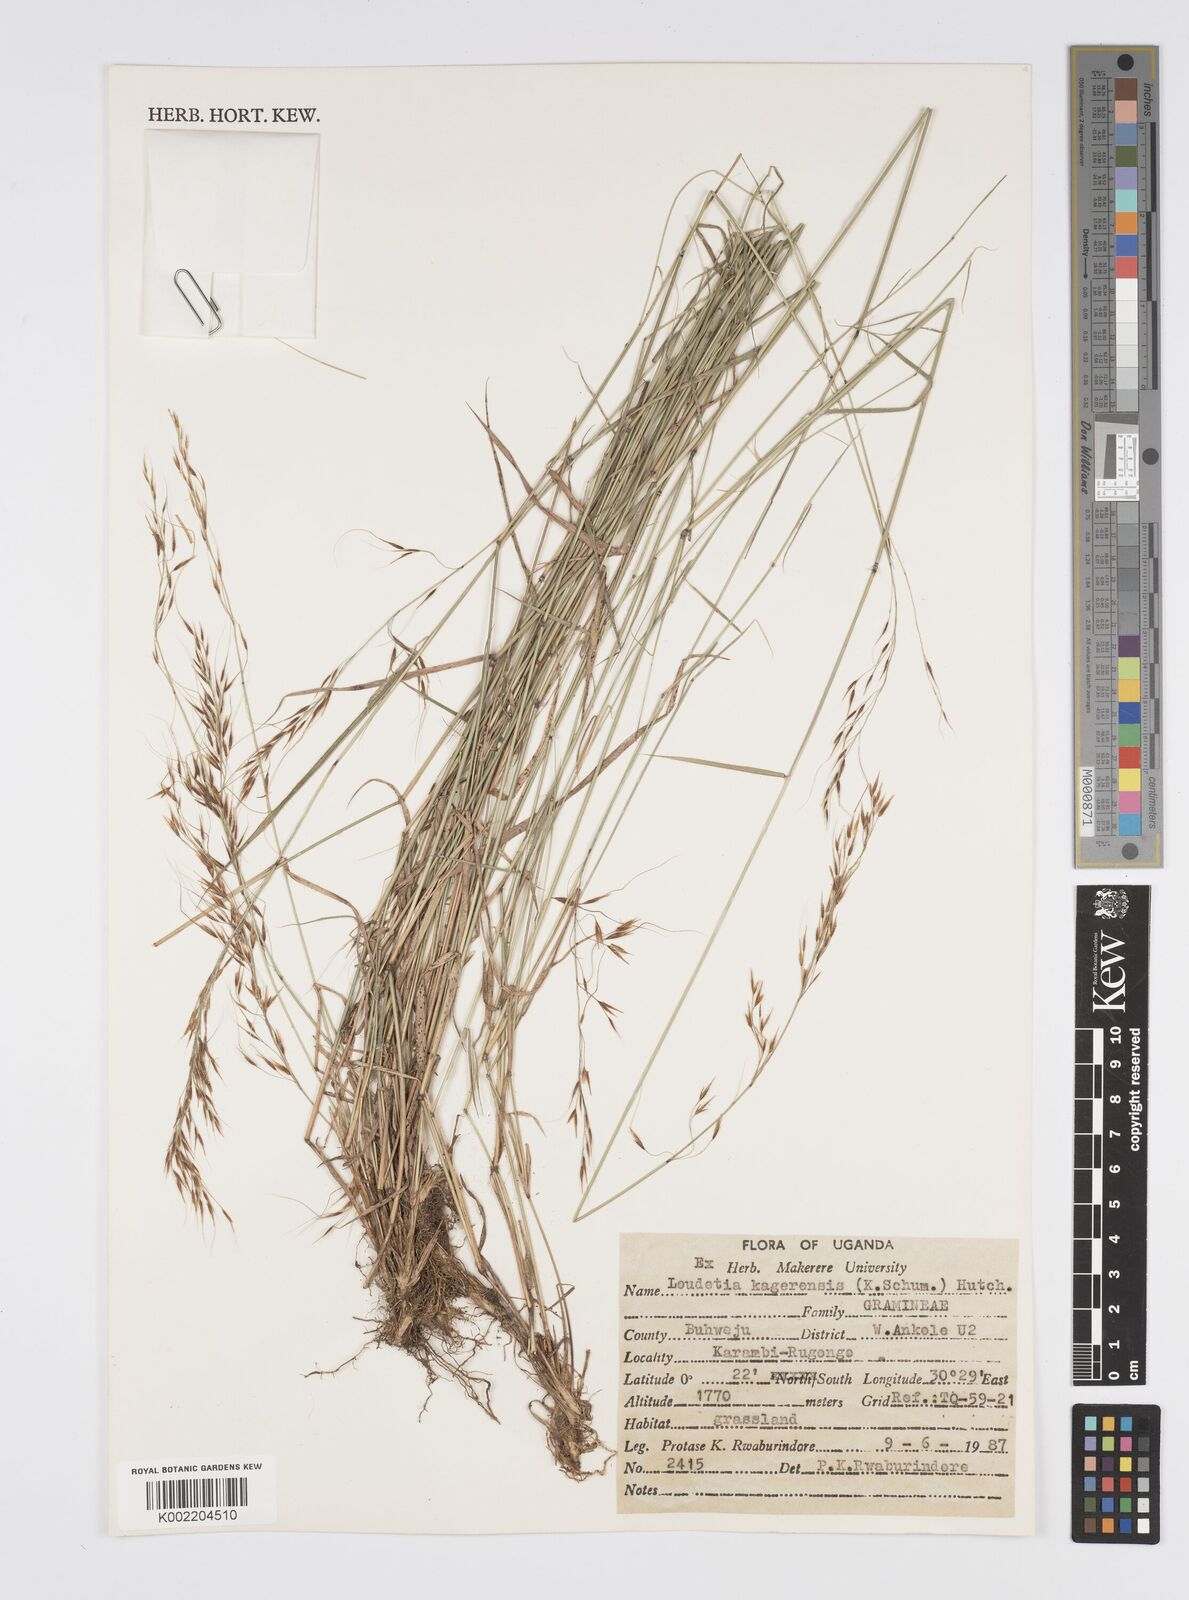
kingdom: Plantae
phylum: Tracheophyta
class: Liliopsida
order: Poales
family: Poaceae
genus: Loudetia
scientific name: Loudetia kagerensis
